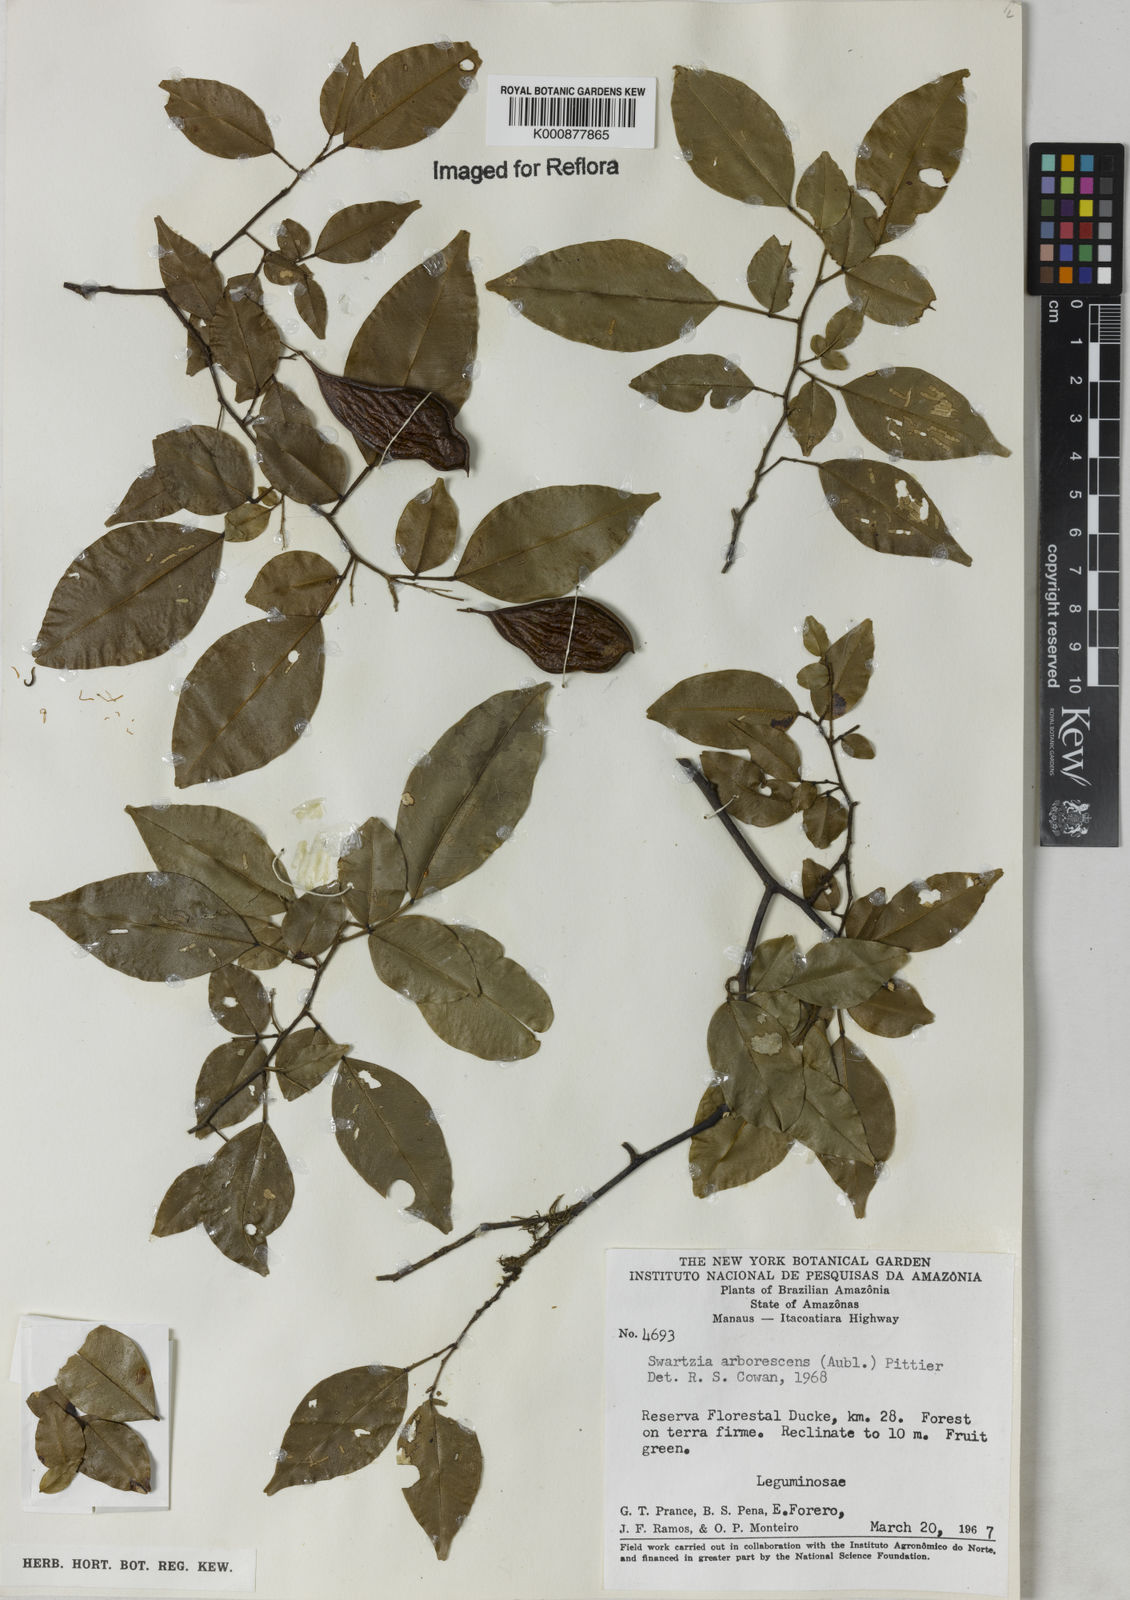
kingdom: Plantae
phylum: Tracheophyta
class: Magnoliopsida
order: Fabales
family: Fabaceae
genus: Swartzia
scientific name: Swartzia arborescens
